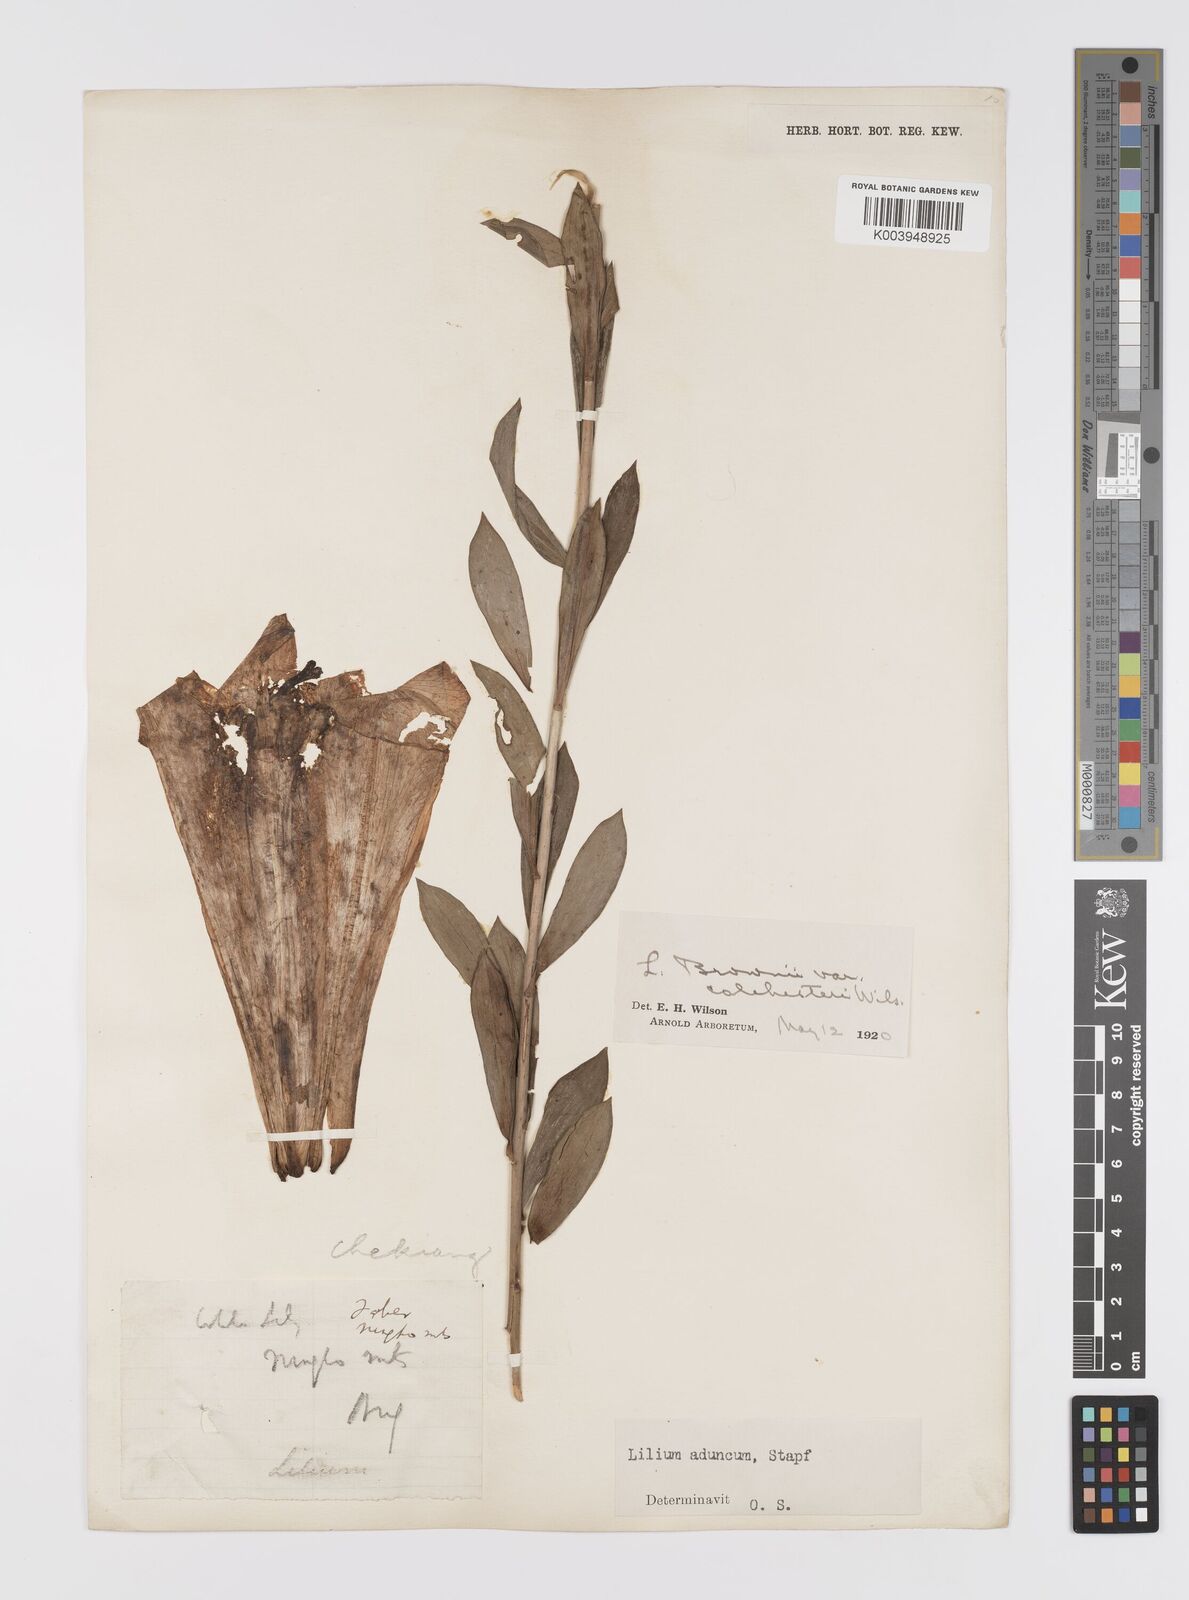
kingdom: Plantae
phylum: Tracheophyta
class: Liliopsida
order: Liliales
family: Liliaceae
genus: Lilium
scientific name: Lilium brownii
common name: Brown's lily
